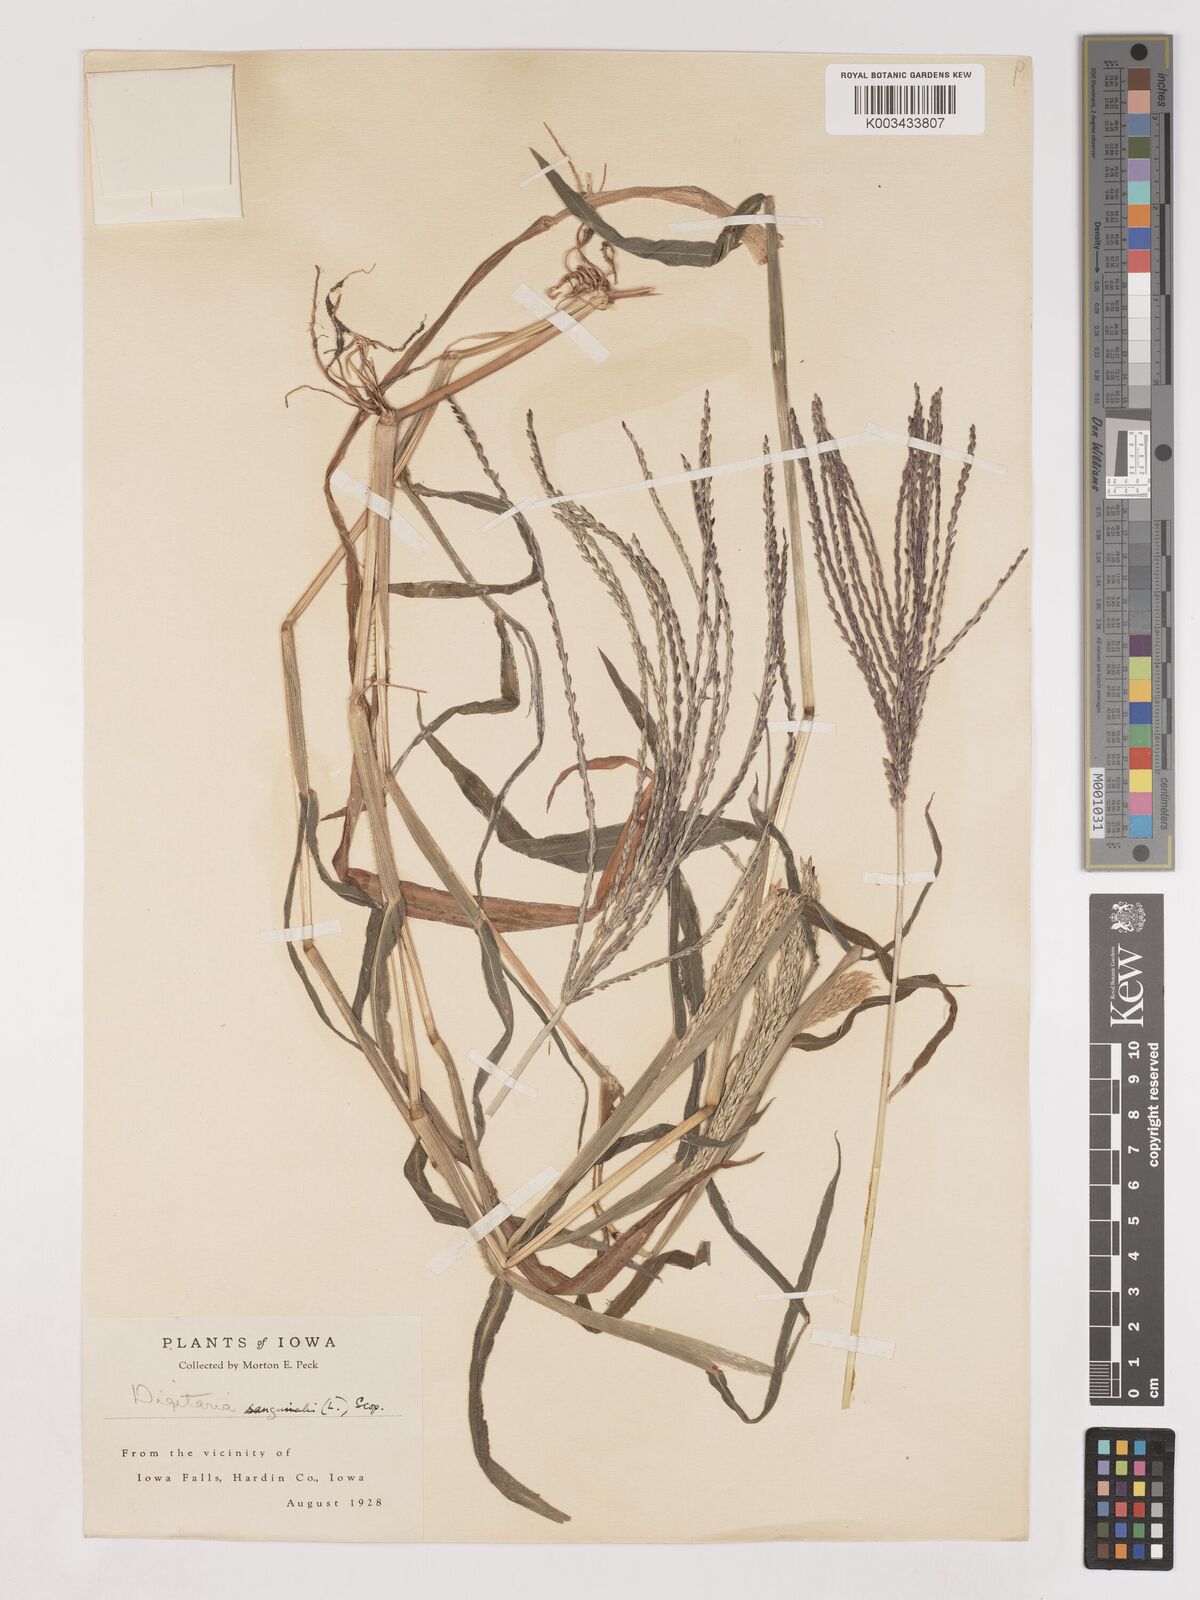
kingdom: Plantae
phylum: Tracheophyta
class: Liliopsida
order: Poales
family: Poaceae
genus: Digitaria
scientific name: Digitaria sanguinalis
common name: Hairy crabgrass
